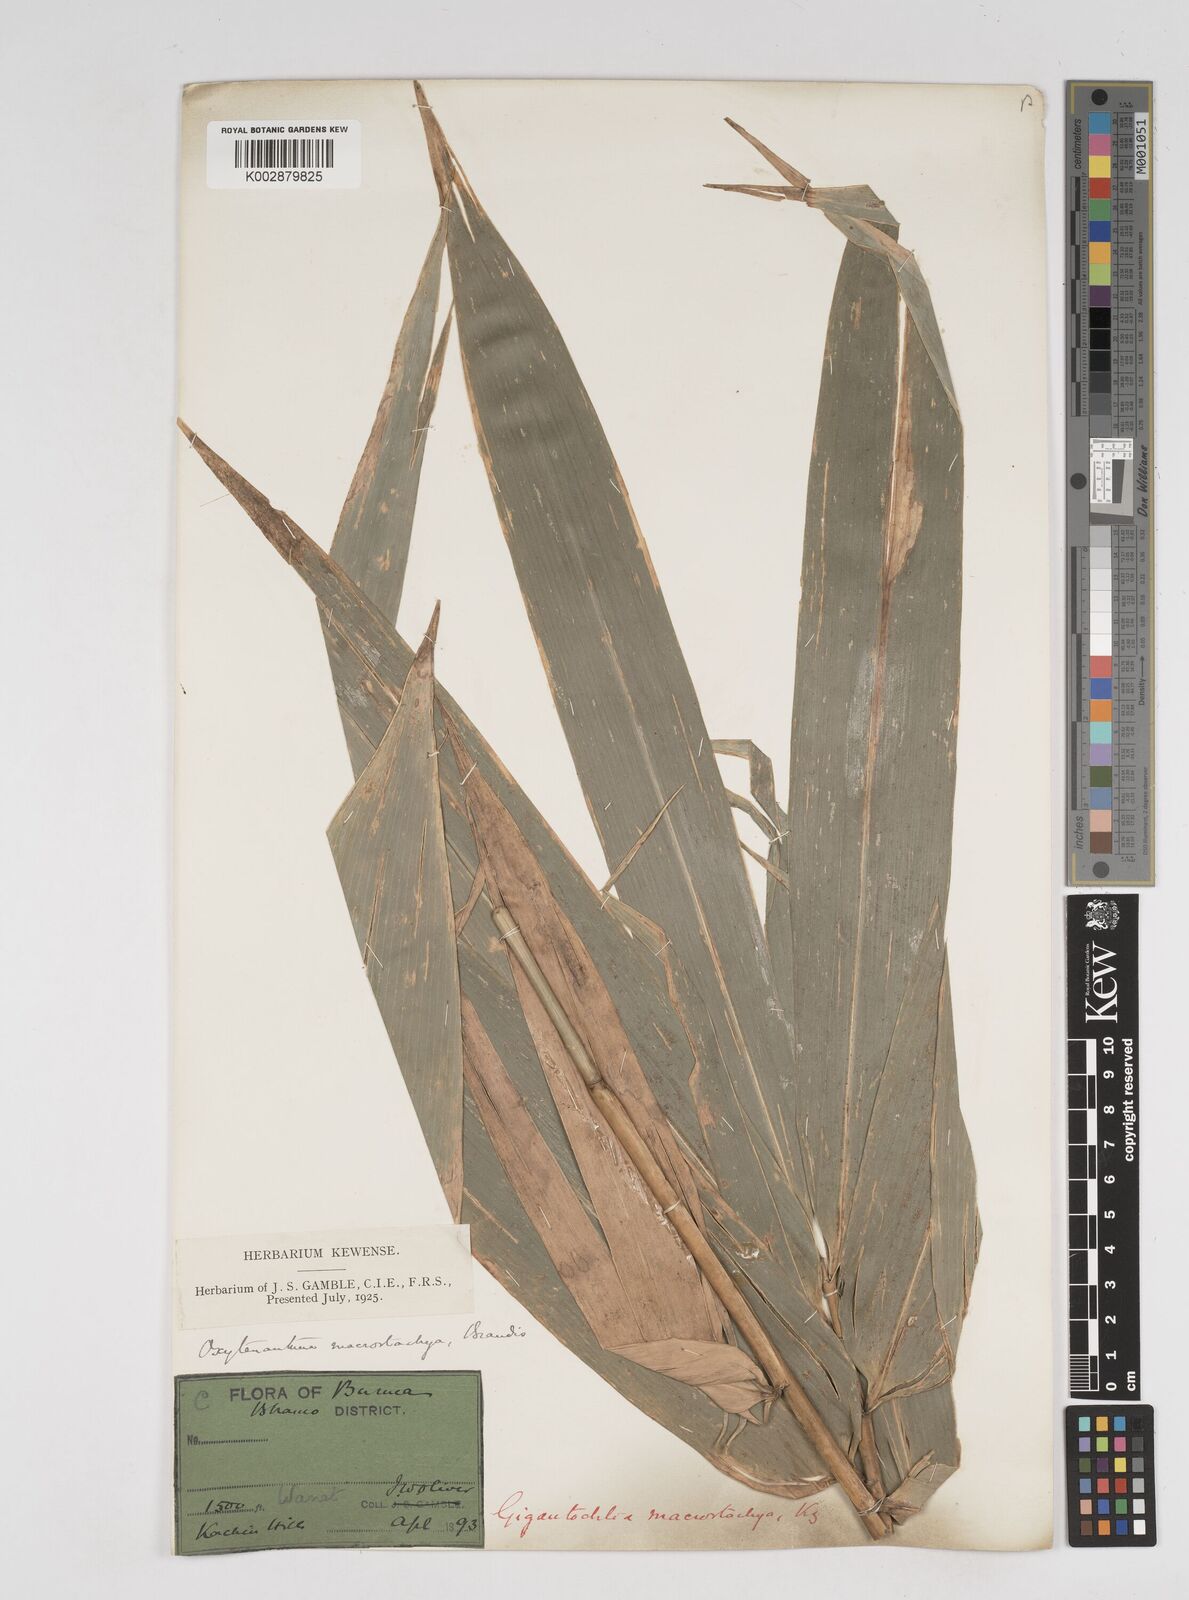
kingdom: Plantae
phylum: Tracheophyta
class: Liliopsida
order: Poales
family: Poaceae
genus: Gigantochloa
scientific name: Gigantochloa macrostachya
